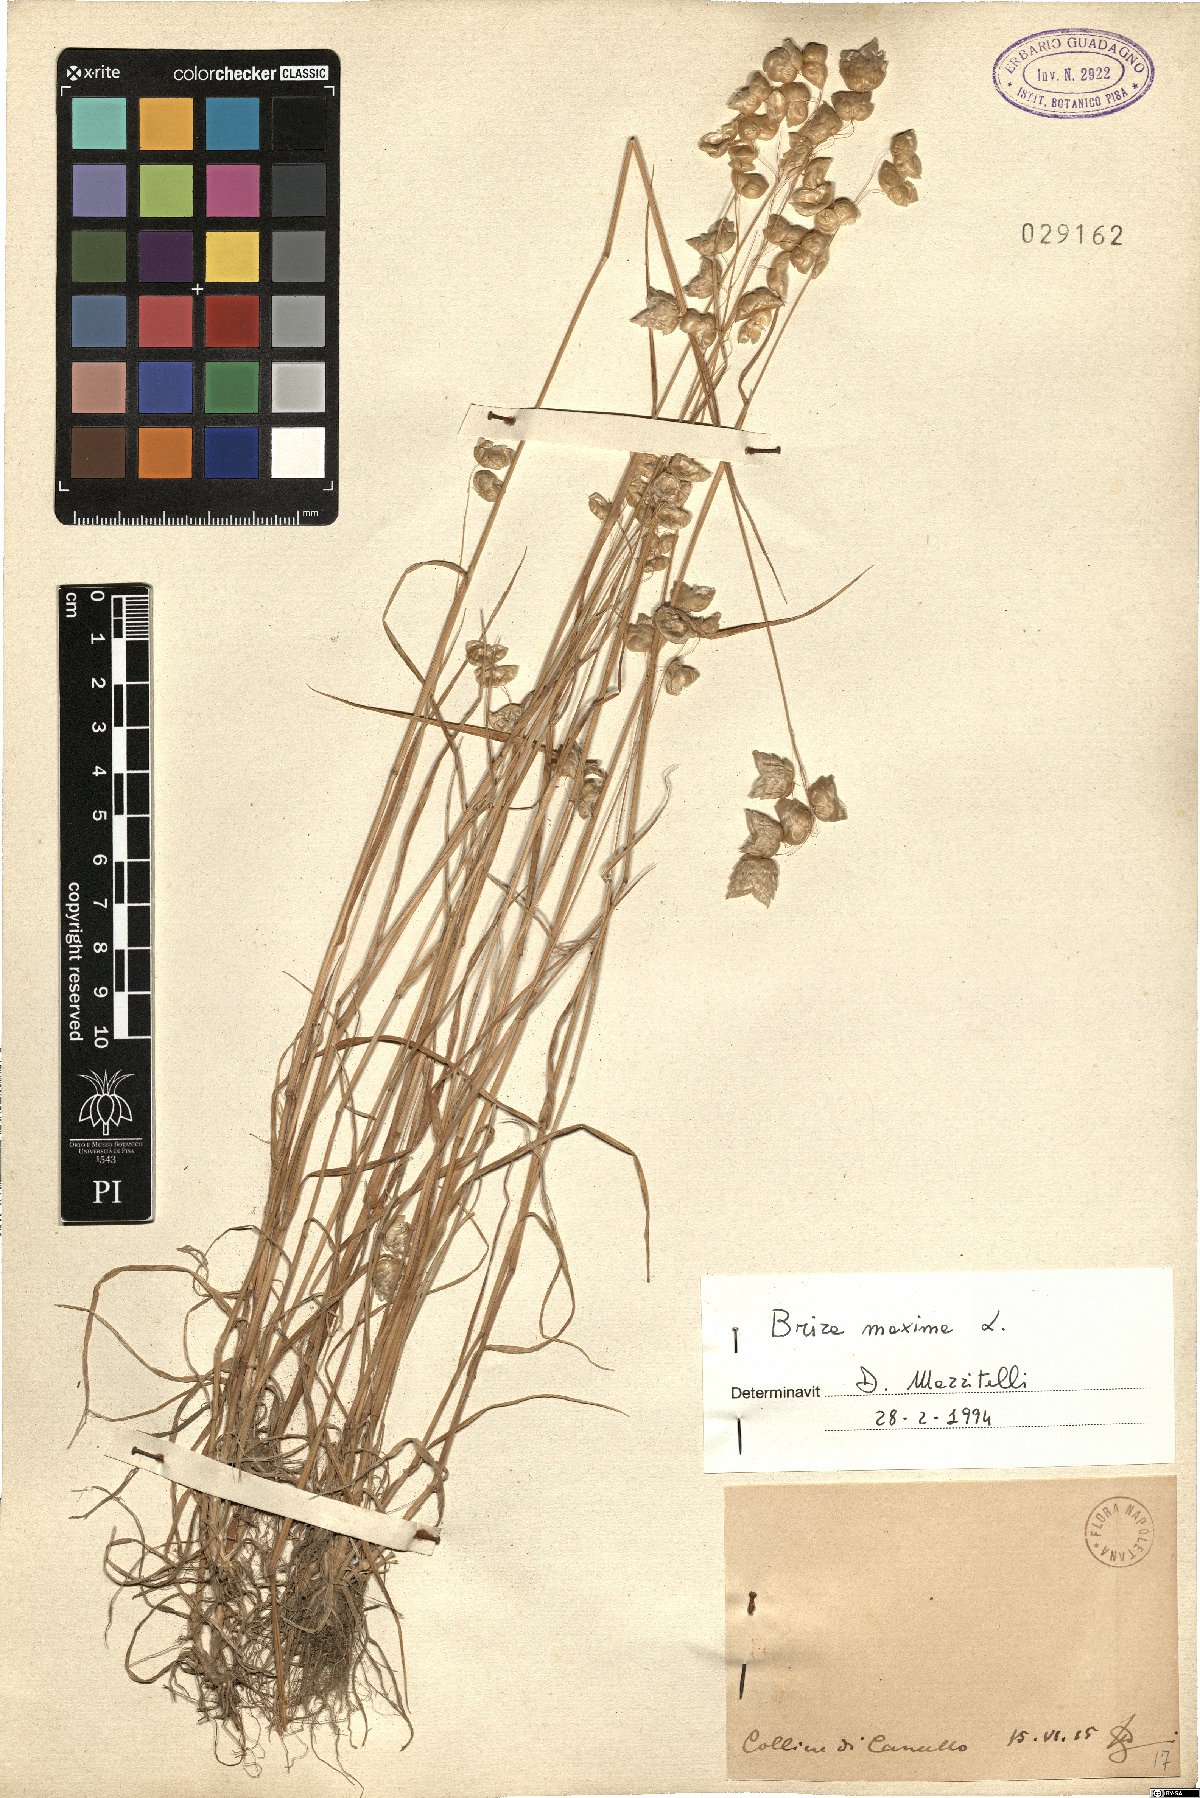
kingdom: Plantae
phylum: Tracheophyta
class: Liliopsida
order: Poales
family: Poaceae
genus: Briza
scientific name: Briza maxima
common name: Big quakinggrass
